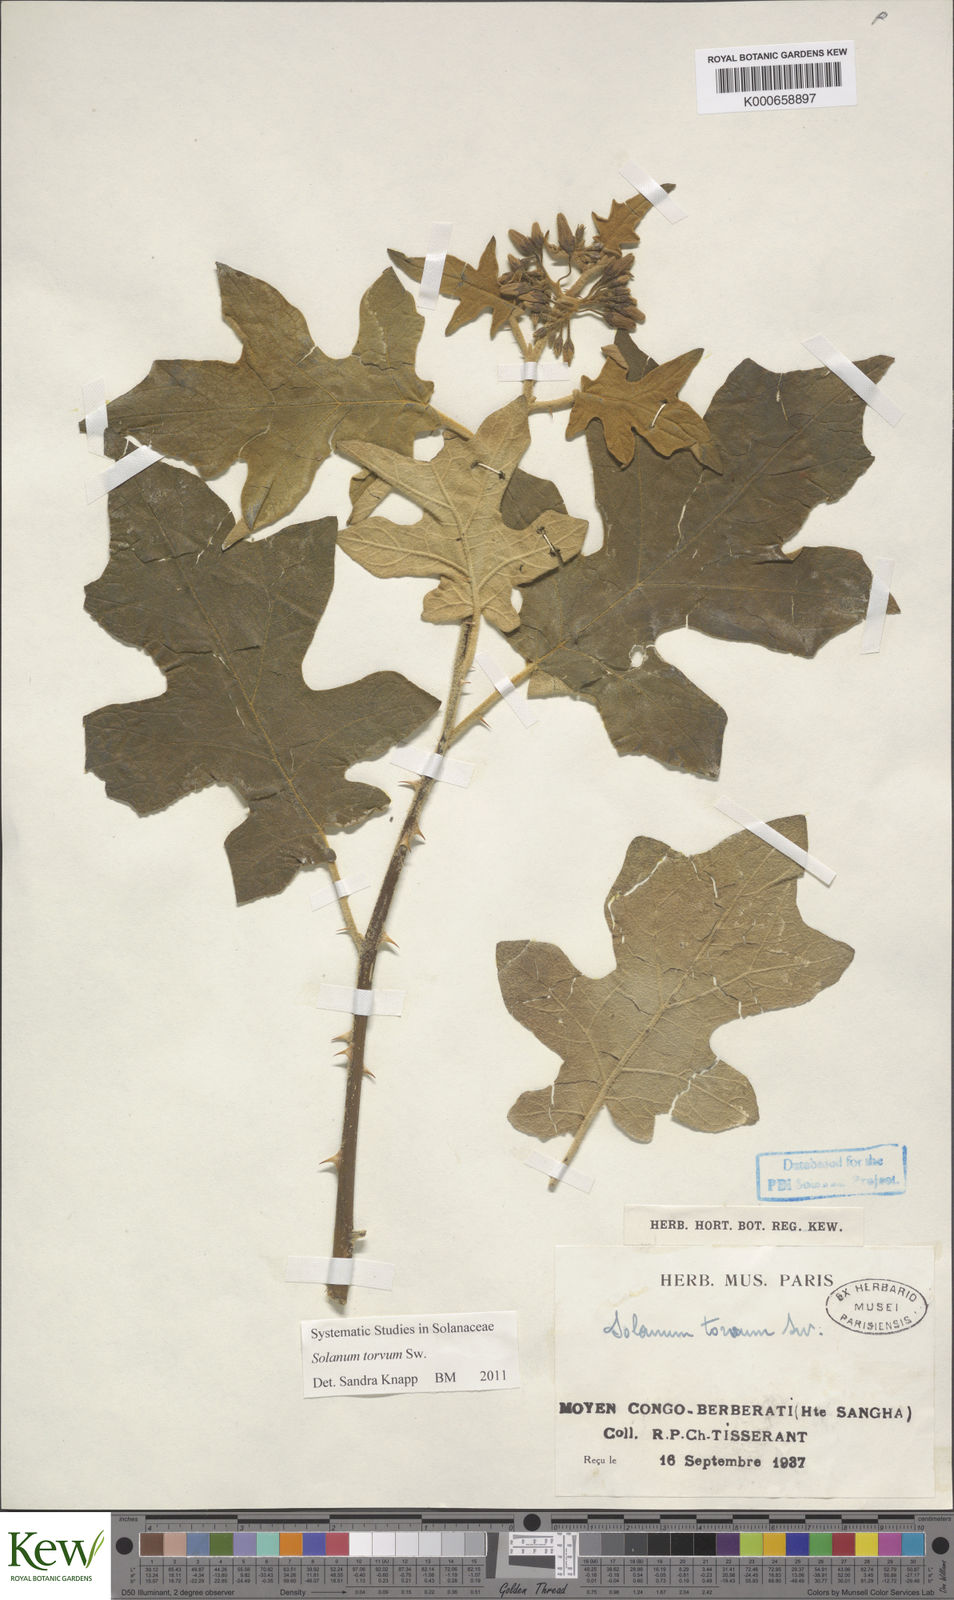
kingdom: Plantae
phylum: Tracheophyta
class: Magnoliopsida
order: Solanales
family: Solanaceae
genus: Solanum
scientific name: Solanum torvum
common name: Turkey berry
